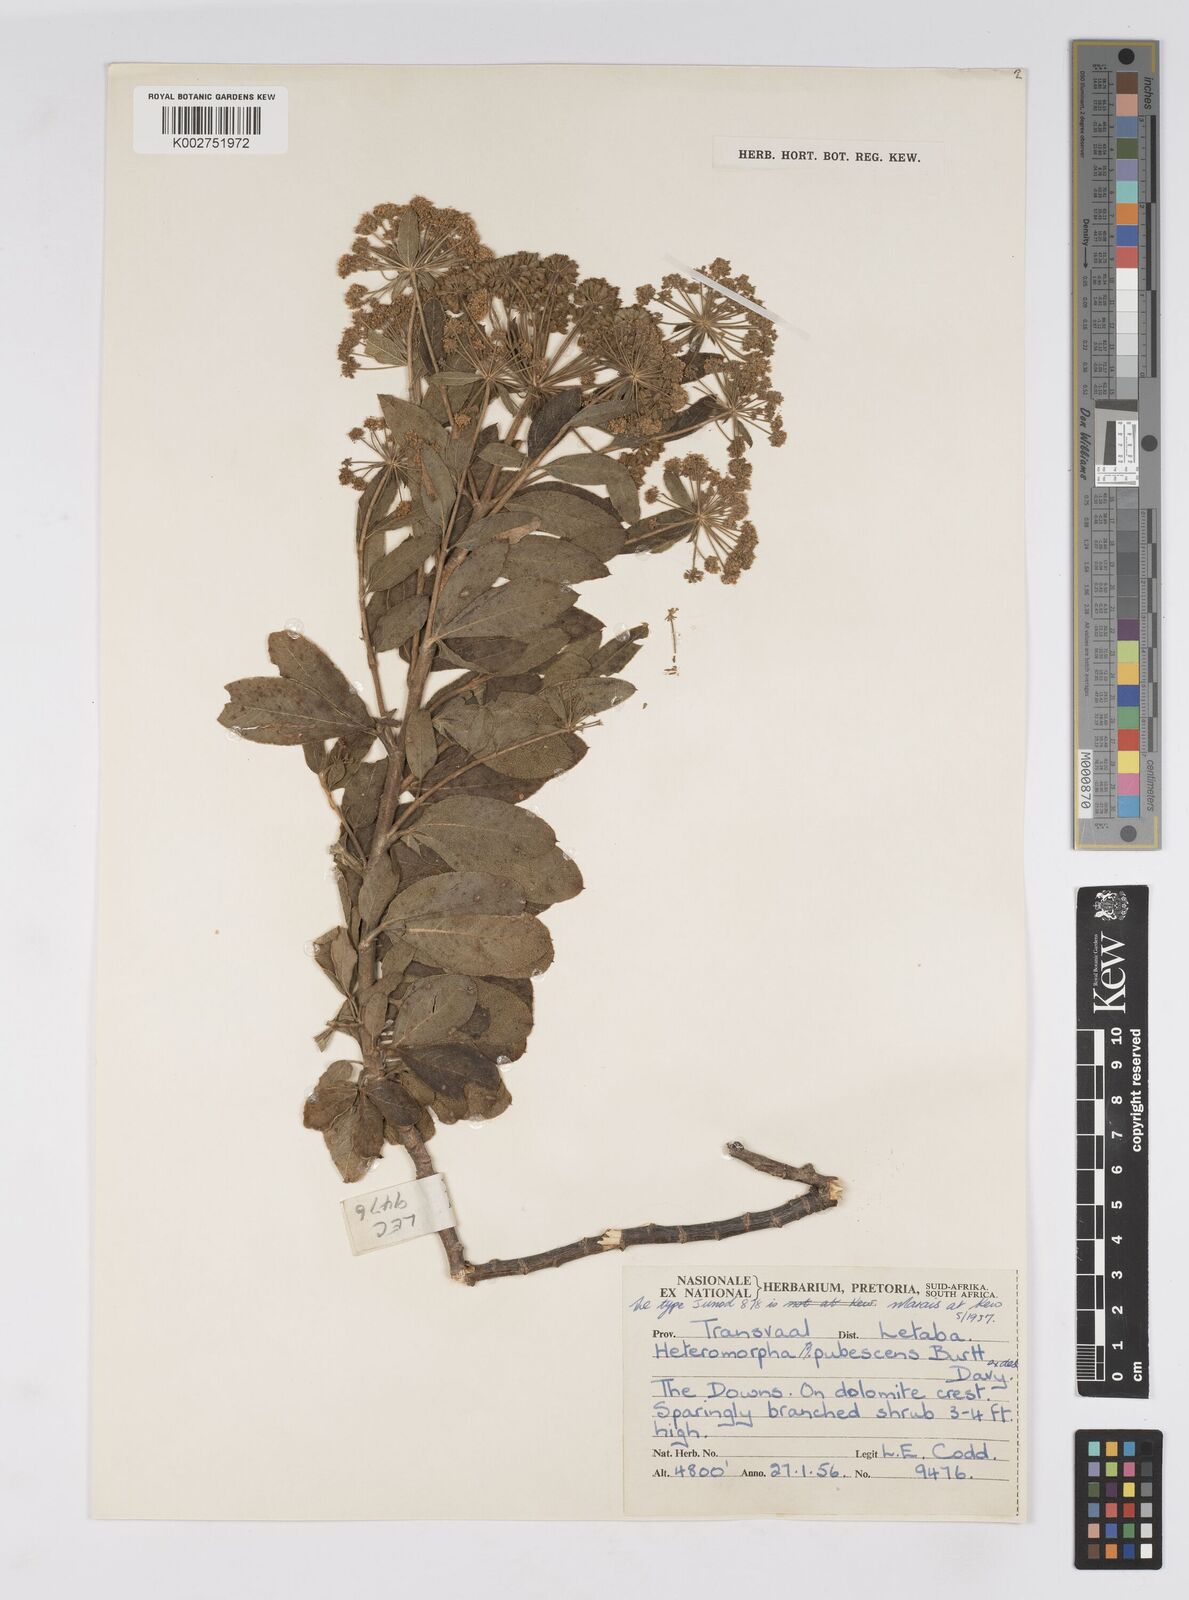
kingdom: Plantae
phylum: Tracheophyta
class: Magnoliopsida
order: Apiales
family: Apiaceae
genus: Heteromorpha
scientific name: Heteromorpha pubescens
